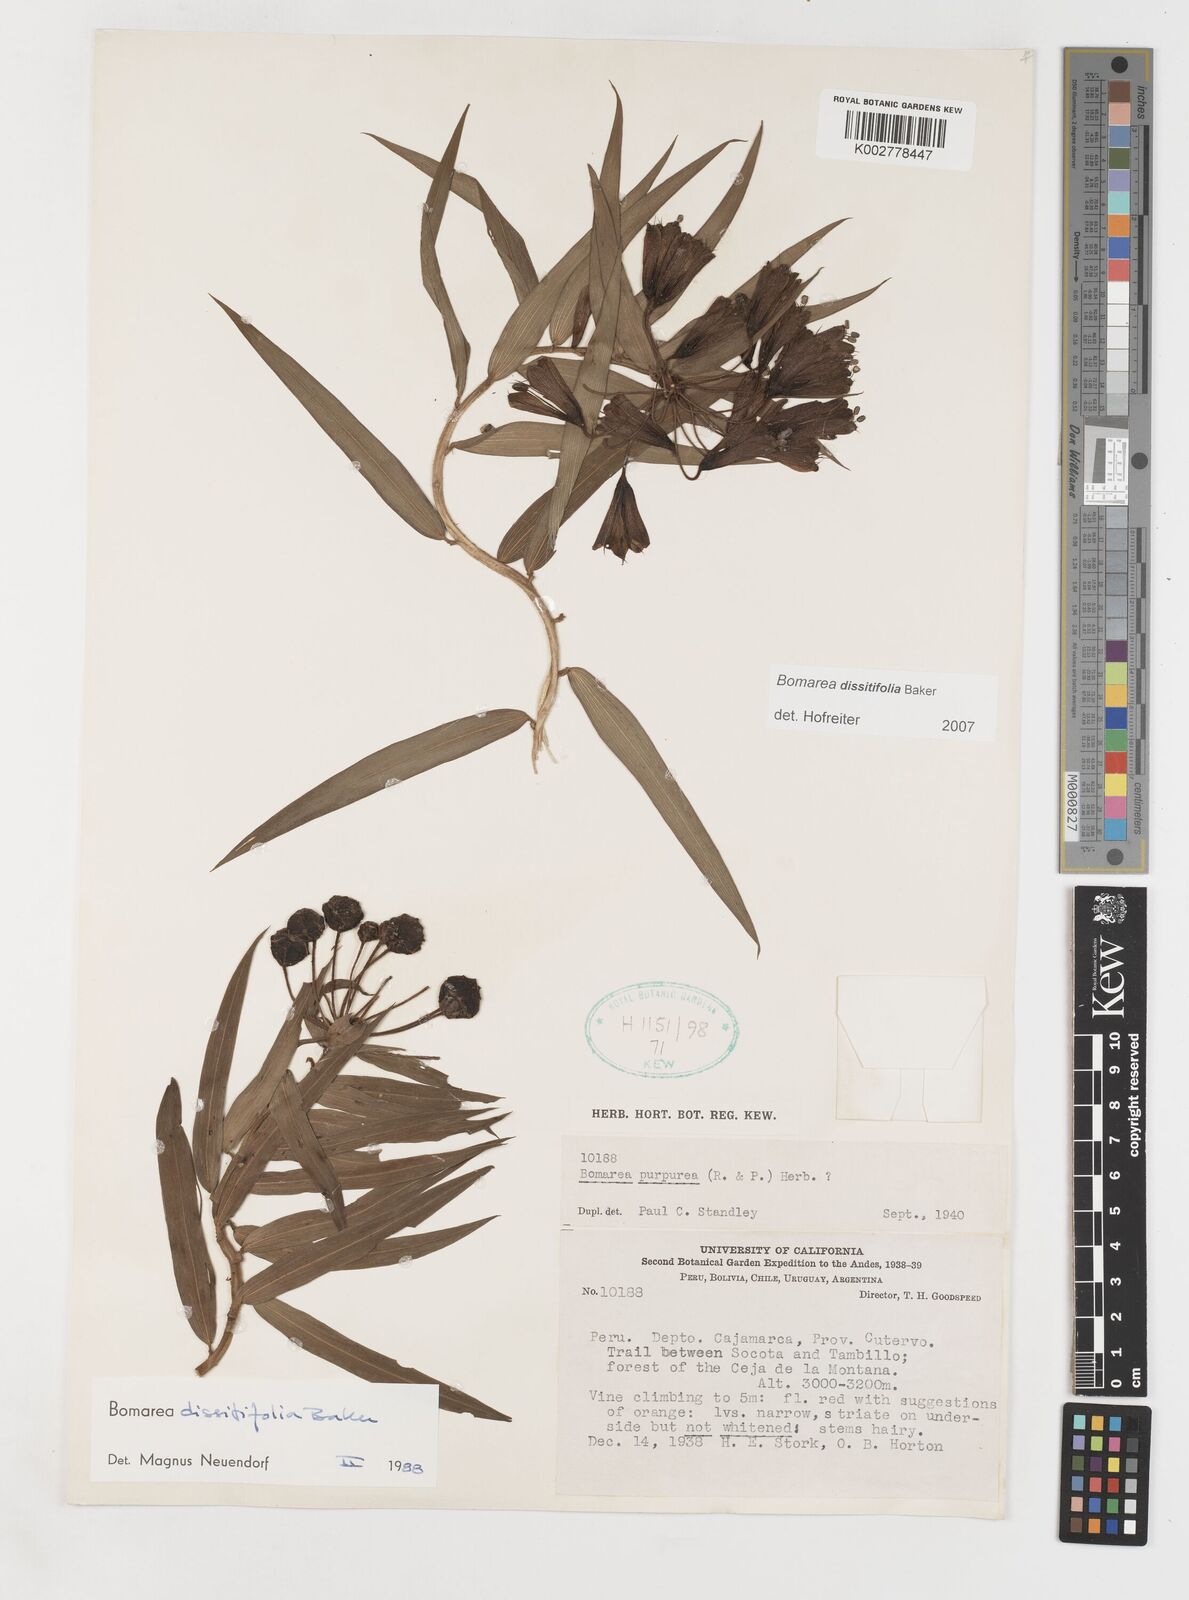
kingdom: Plantae
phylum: Tracheophyta
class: Liliopsida
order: Liliales
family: Alstroemeriaceae
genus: Bomarea
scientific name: Bomarea dissitifolia
